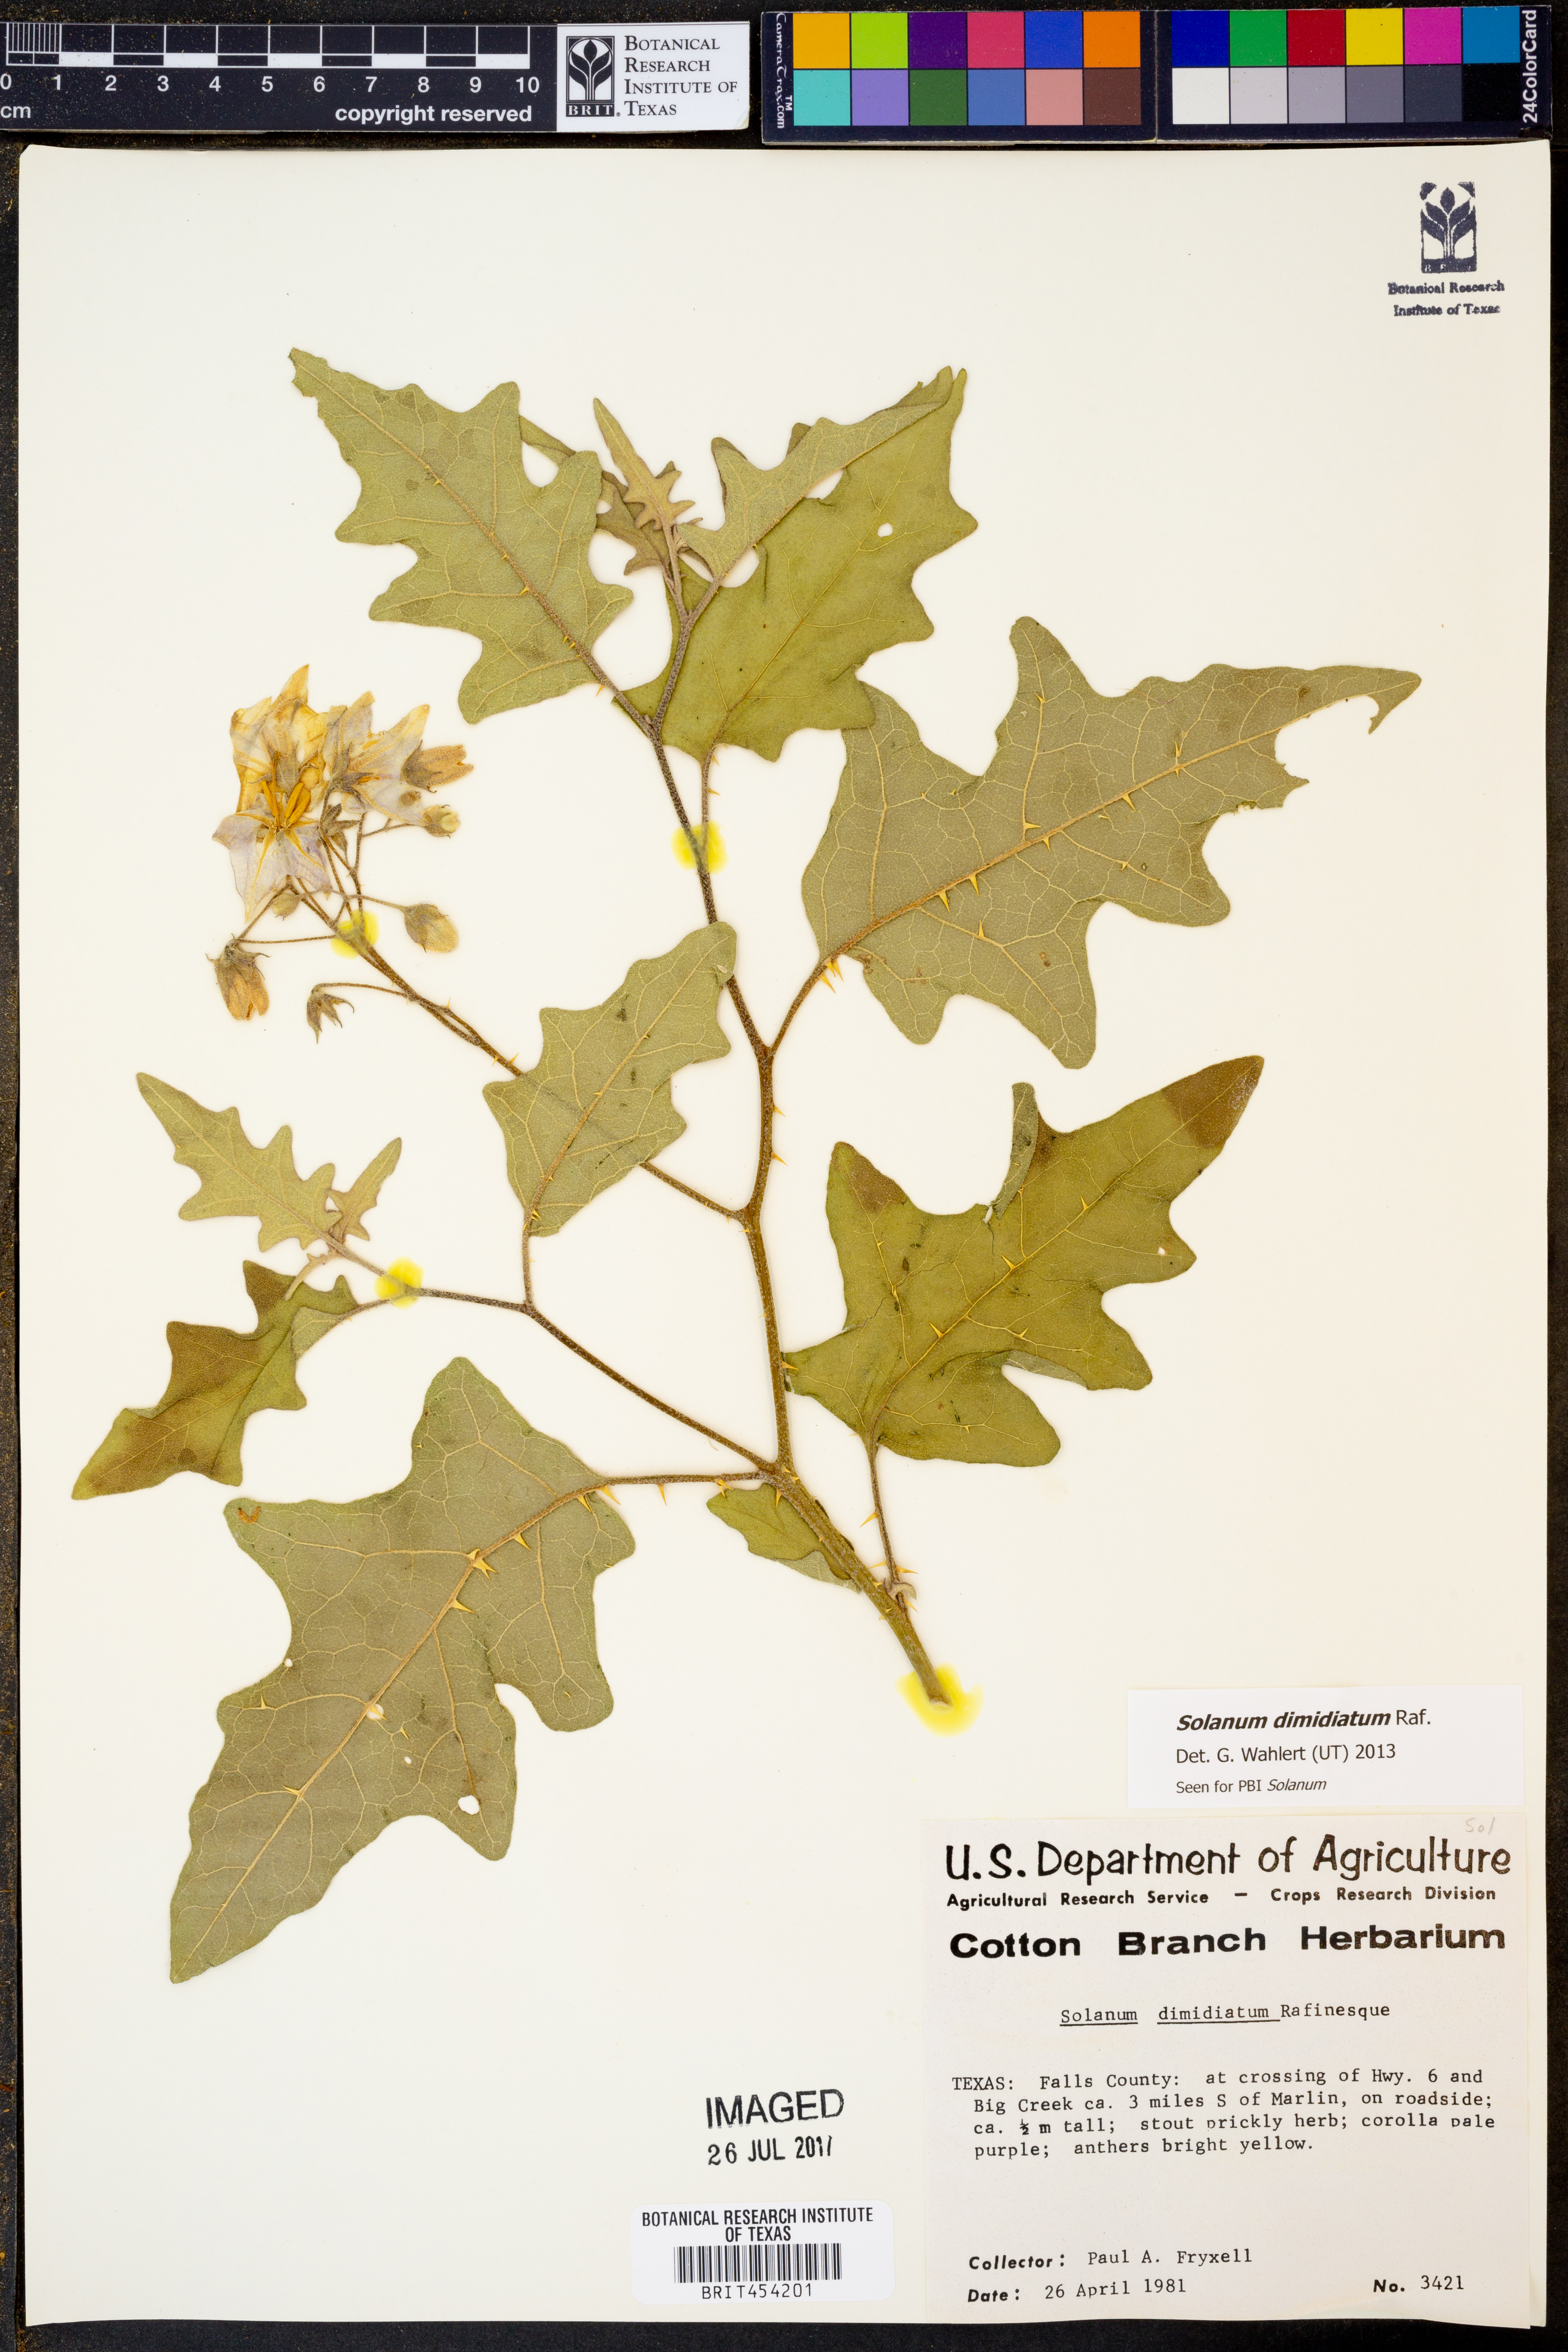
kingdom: Plantae
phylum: Tracheophyta
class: Magnoliopsida
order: Solanales
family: Solanaceae
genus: Solanum
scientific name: Solanum dimidiatum
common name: Carolina horse-nettle
